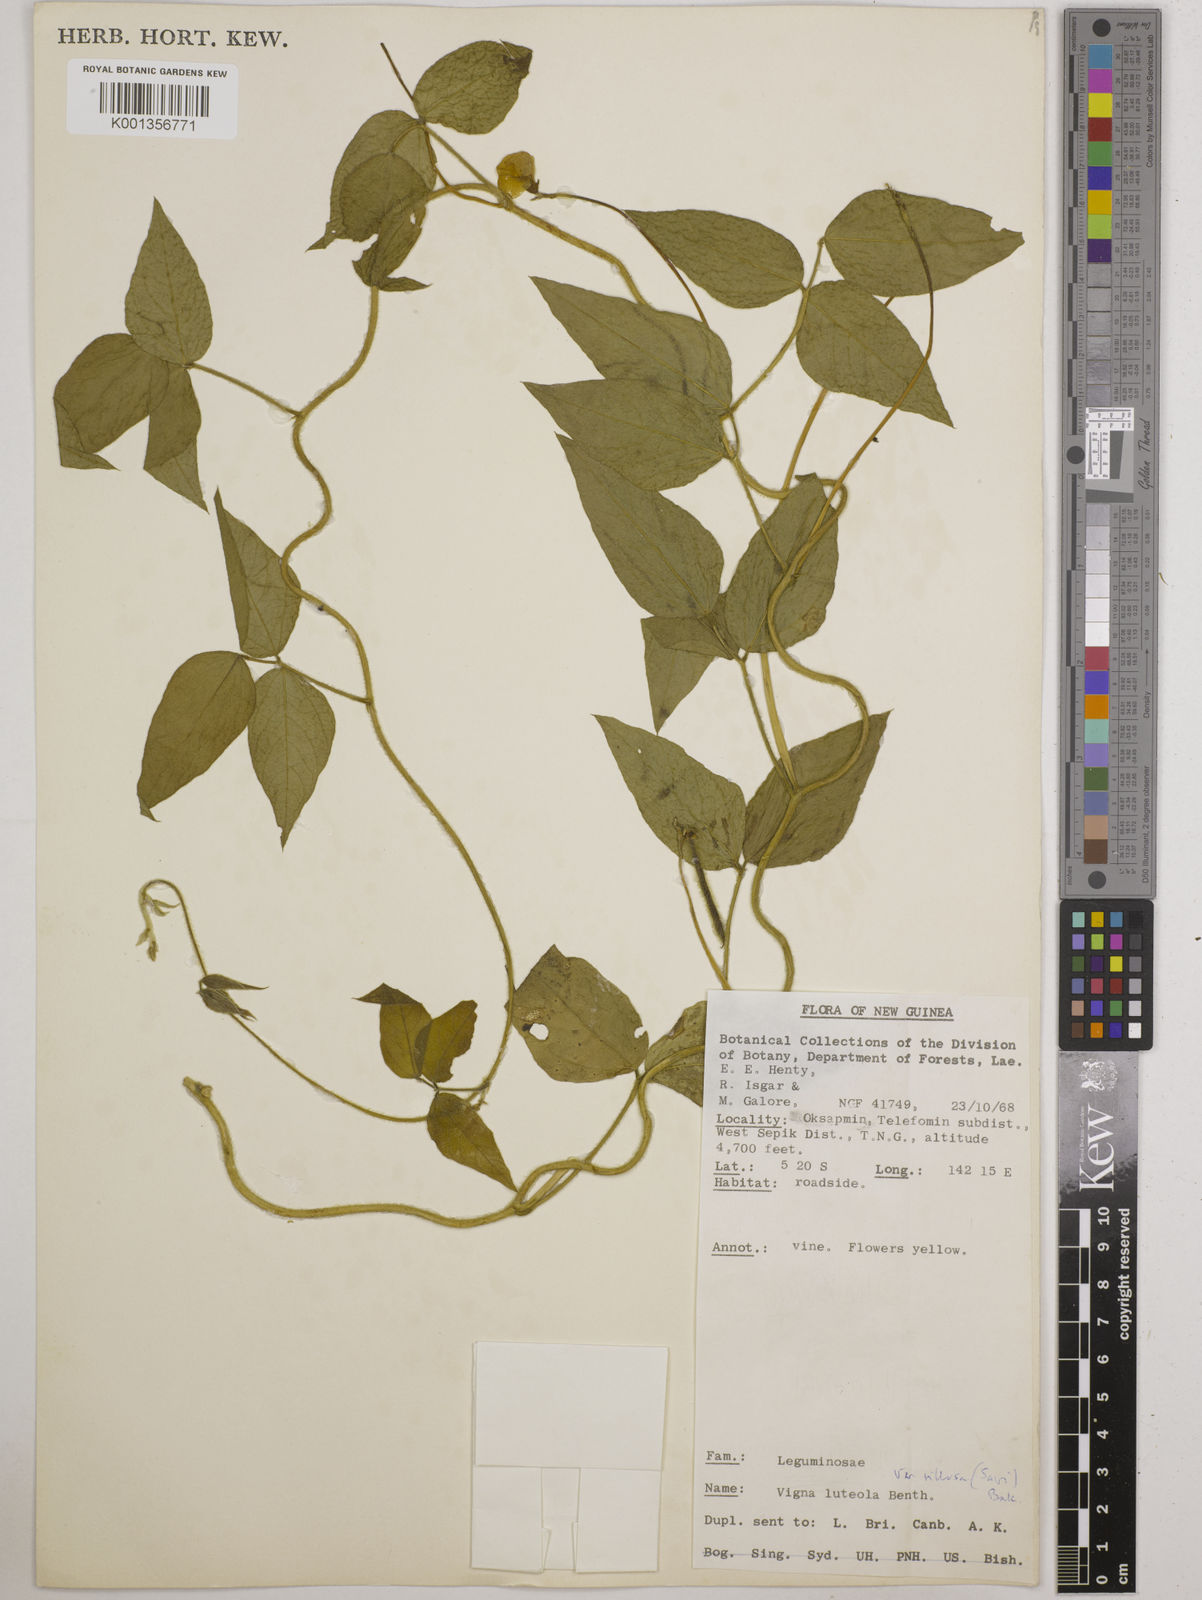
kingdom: Plantae
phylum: Tracheophyta
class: Magnoliopsida
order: Fabales
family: Fabaceae
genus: Vigna
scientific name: Vigna luteola
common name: Hairypod cowpea
